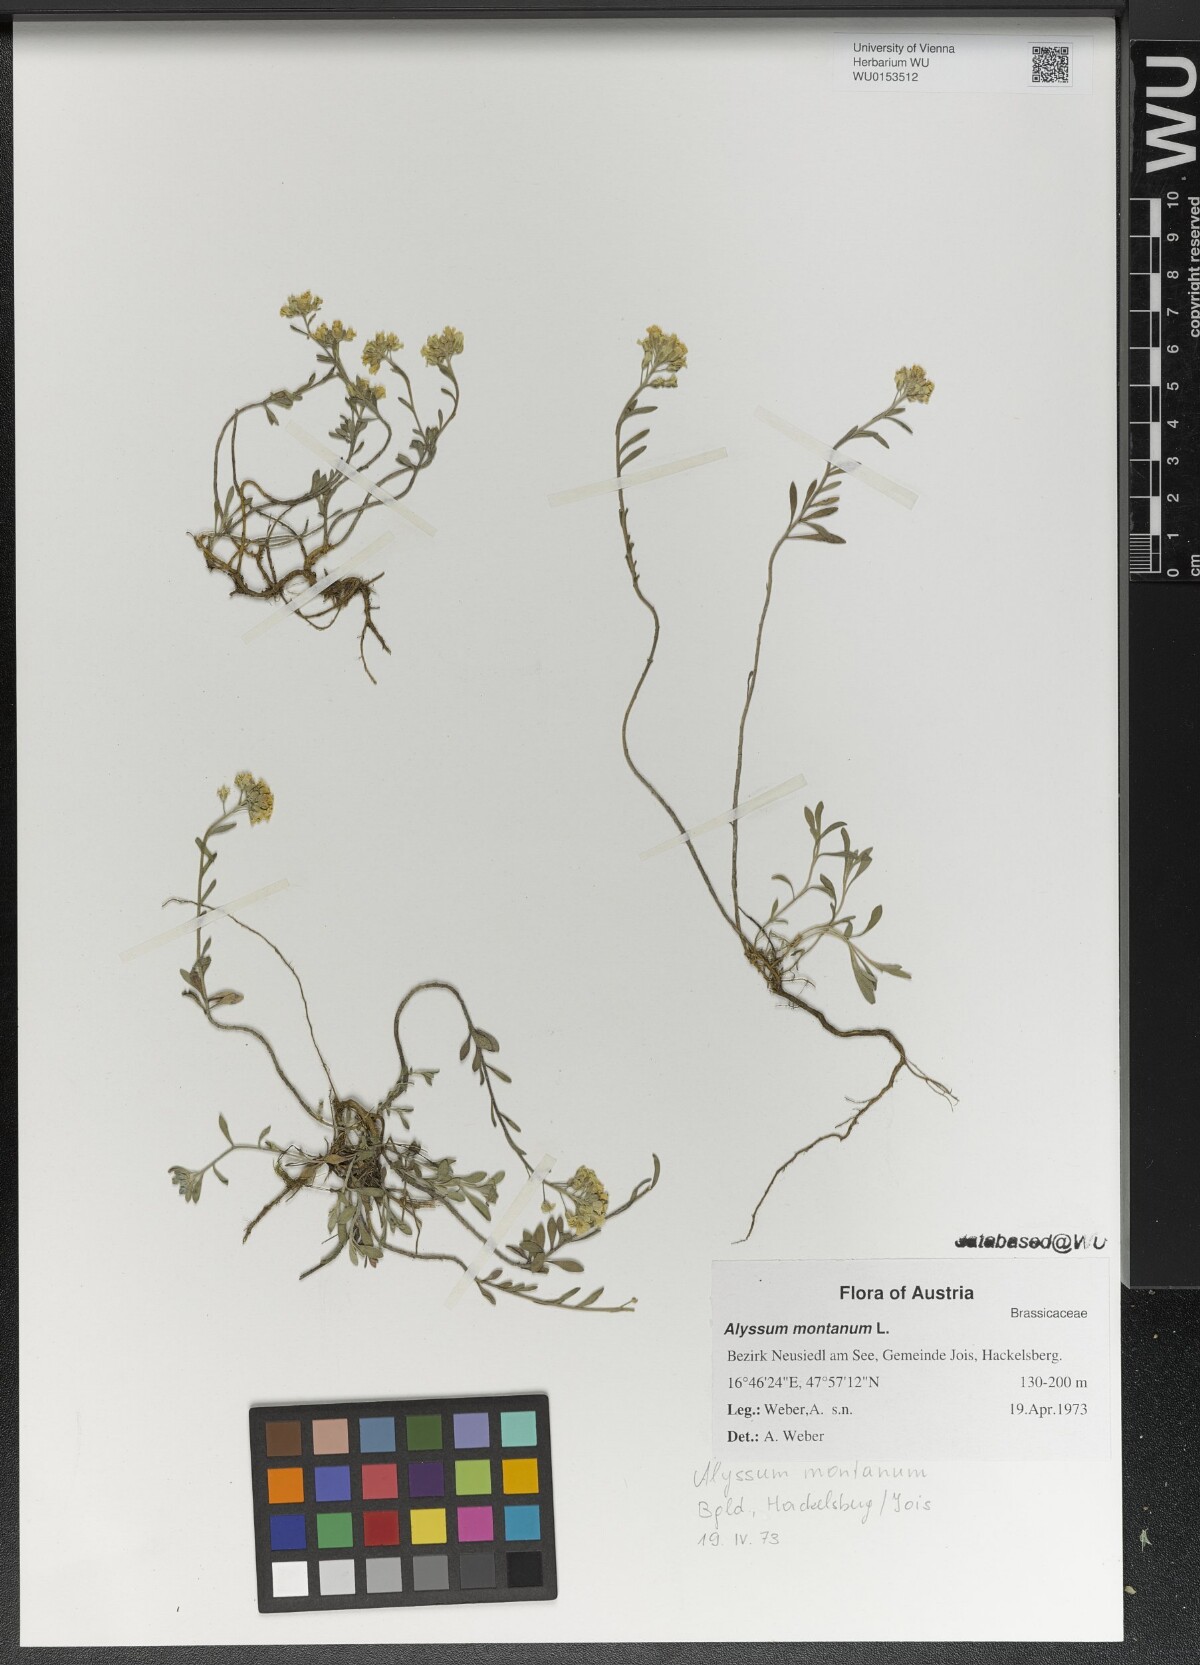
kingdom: Plantae
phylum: Tracheophyta
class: Magnoliopsida
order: Brassicales
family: Brassicaceae
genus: Alyssum
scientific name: Alyssum montanum
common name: Mountain alison
